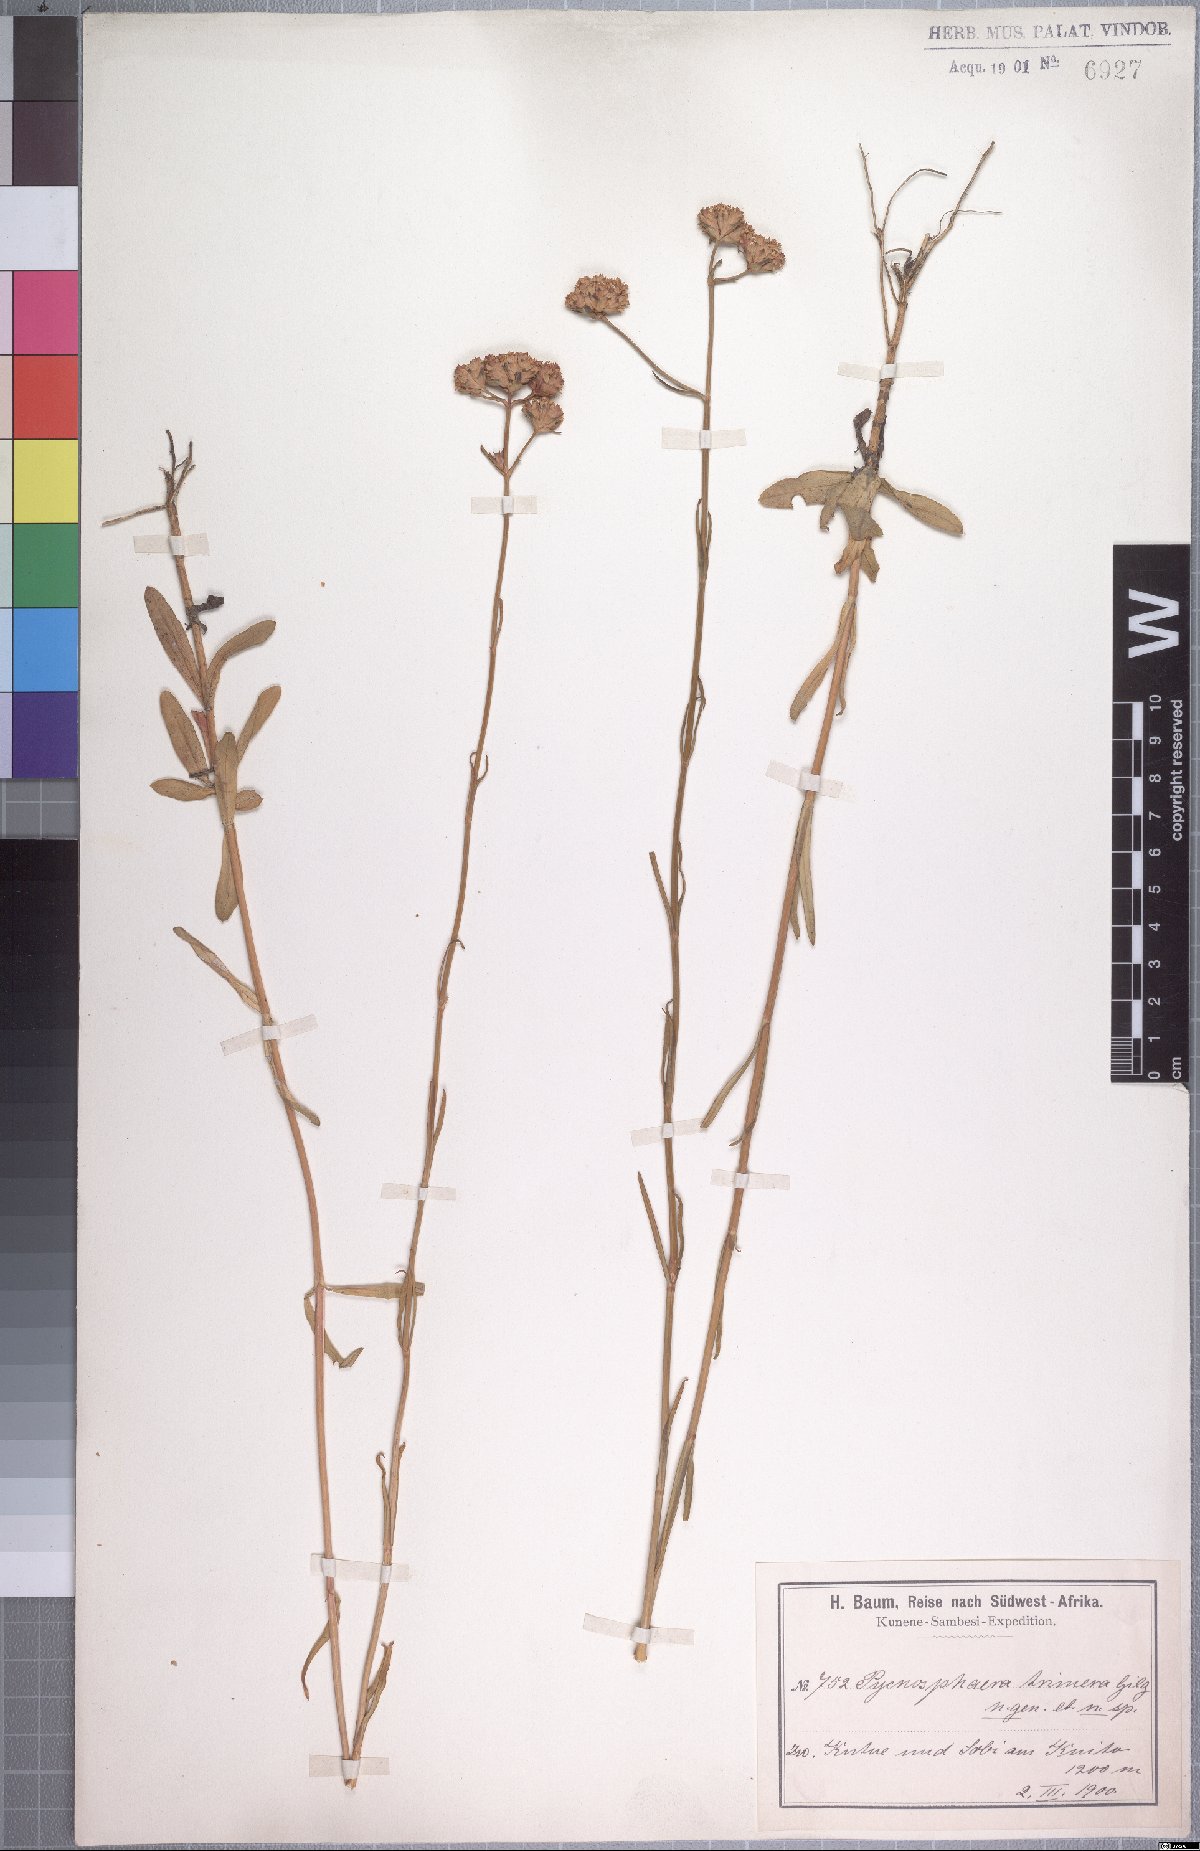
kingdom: Plantae
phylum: Tracheophyta
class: Magnoliopsida
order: Gentianales
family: Gentianaceae
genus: Pycnosphaera
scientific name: Pycnosphaera buchananii
